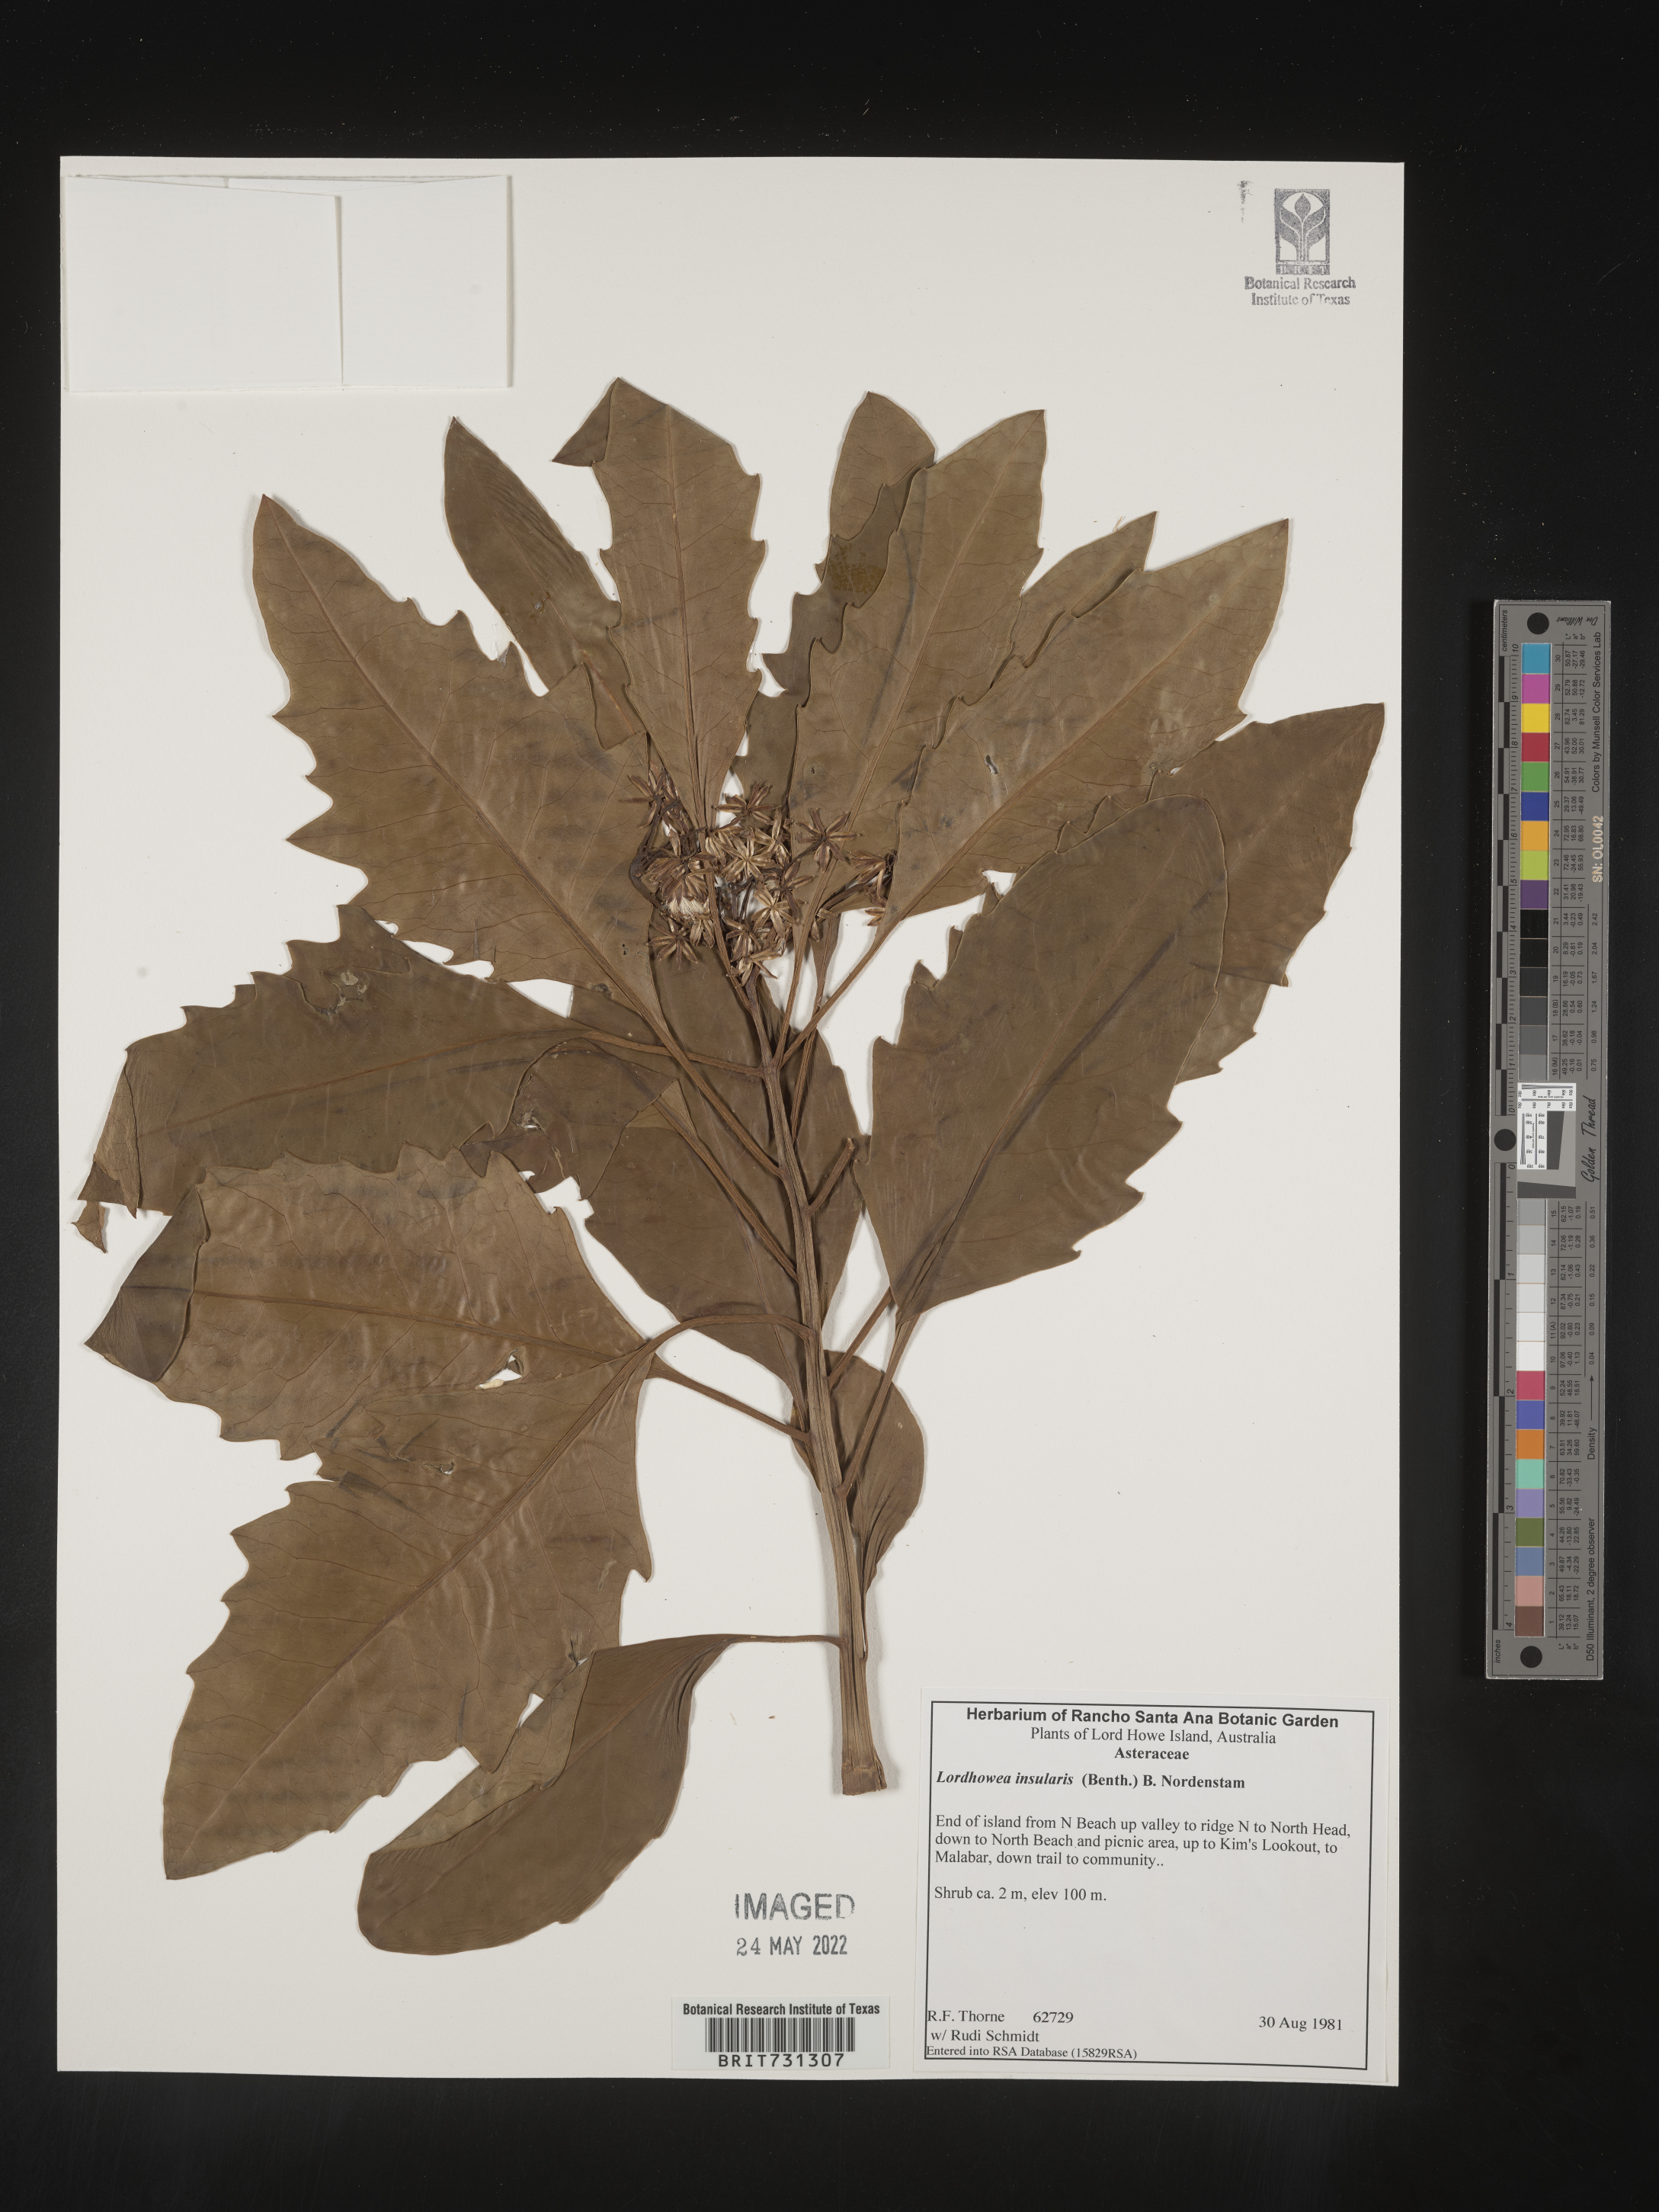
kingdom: Plantae
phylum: Tracheophyta
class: Magnoliopsida
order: Asterales
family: Asteraceae
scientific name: Asteraceae
